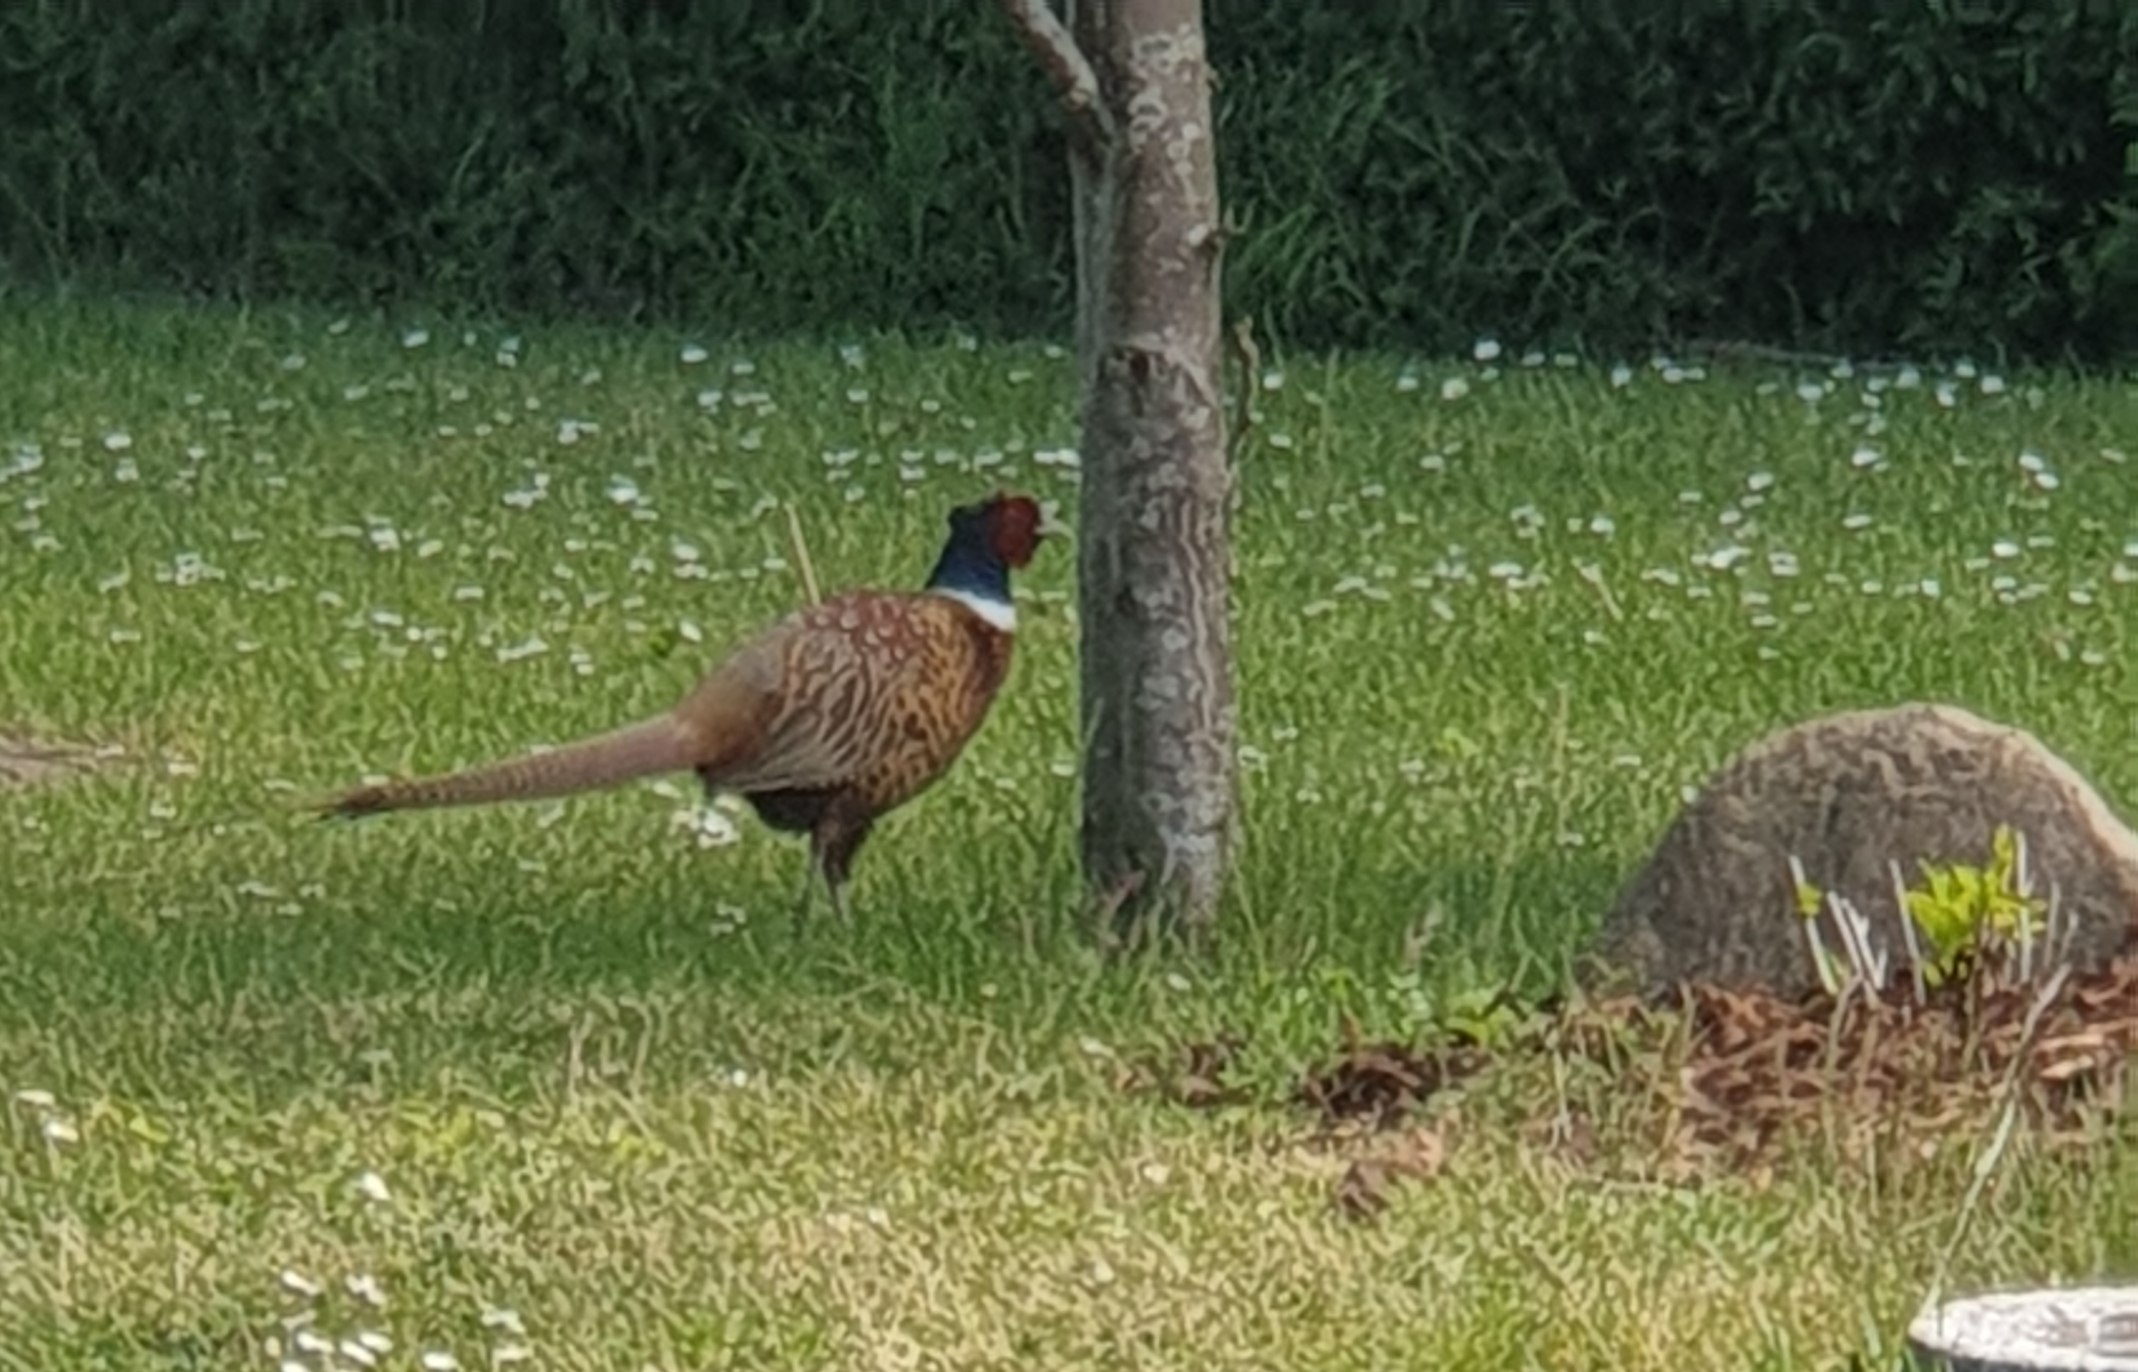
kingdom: Animalia
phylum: Chordata
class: Aves
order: Galliformes
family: Phasianidae
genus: Phasianus
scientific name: Phasianus colchicus
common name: Fasan
